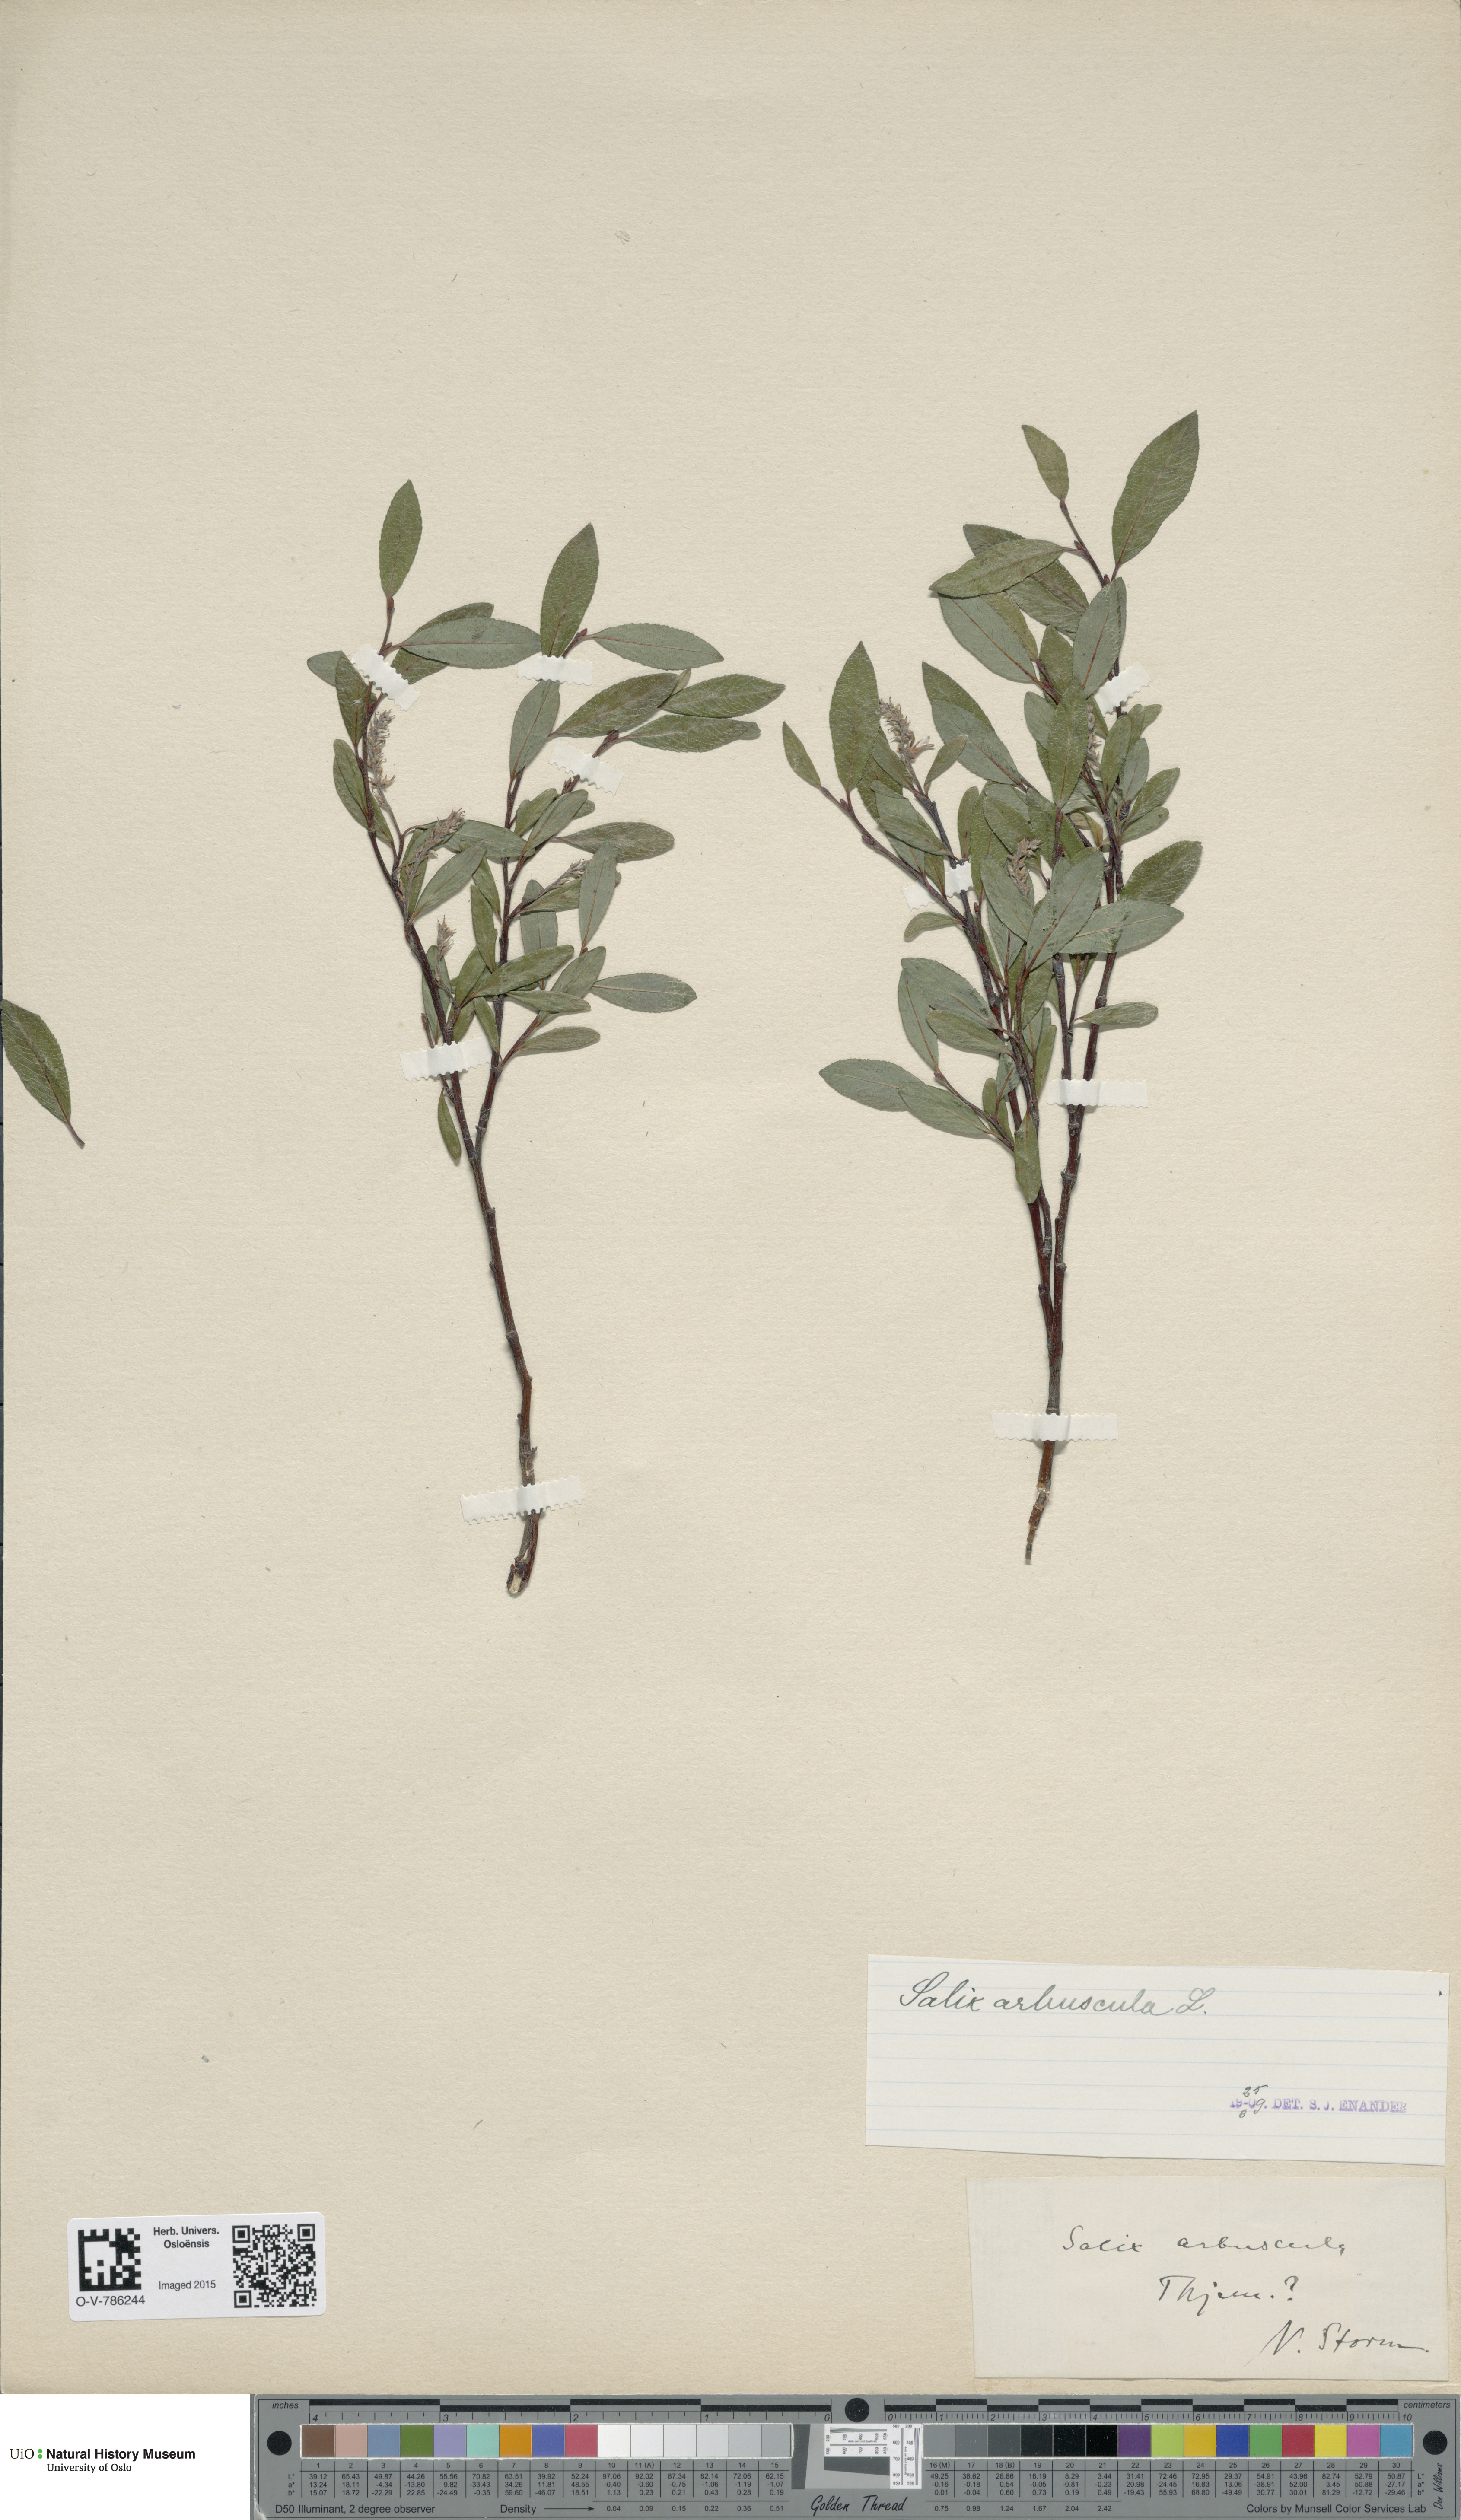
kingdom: Plantae
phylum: Tracheophyta
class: Magnoliopsida
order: Malpighiales
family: Salicaceae
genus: Salix
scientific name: Salix arbuscula
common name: Mountain willow
